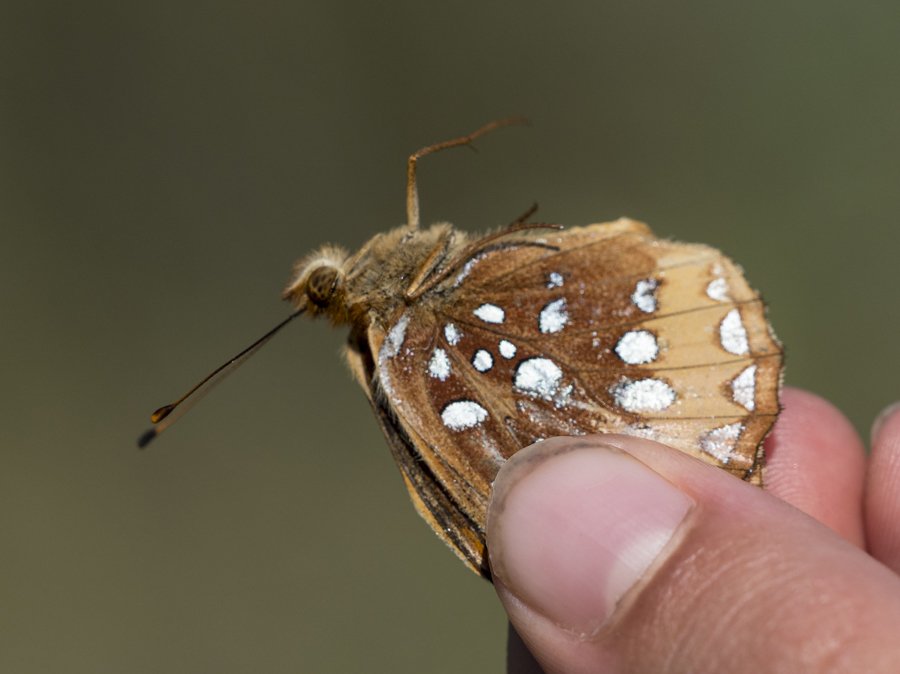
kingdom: Animalia
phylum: Arthropoda
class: Insecta
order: Lepidoptera
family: Nymphalidae
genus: Speyeria
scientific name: Speyeria cybele
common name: Great Spangled Fritillary
